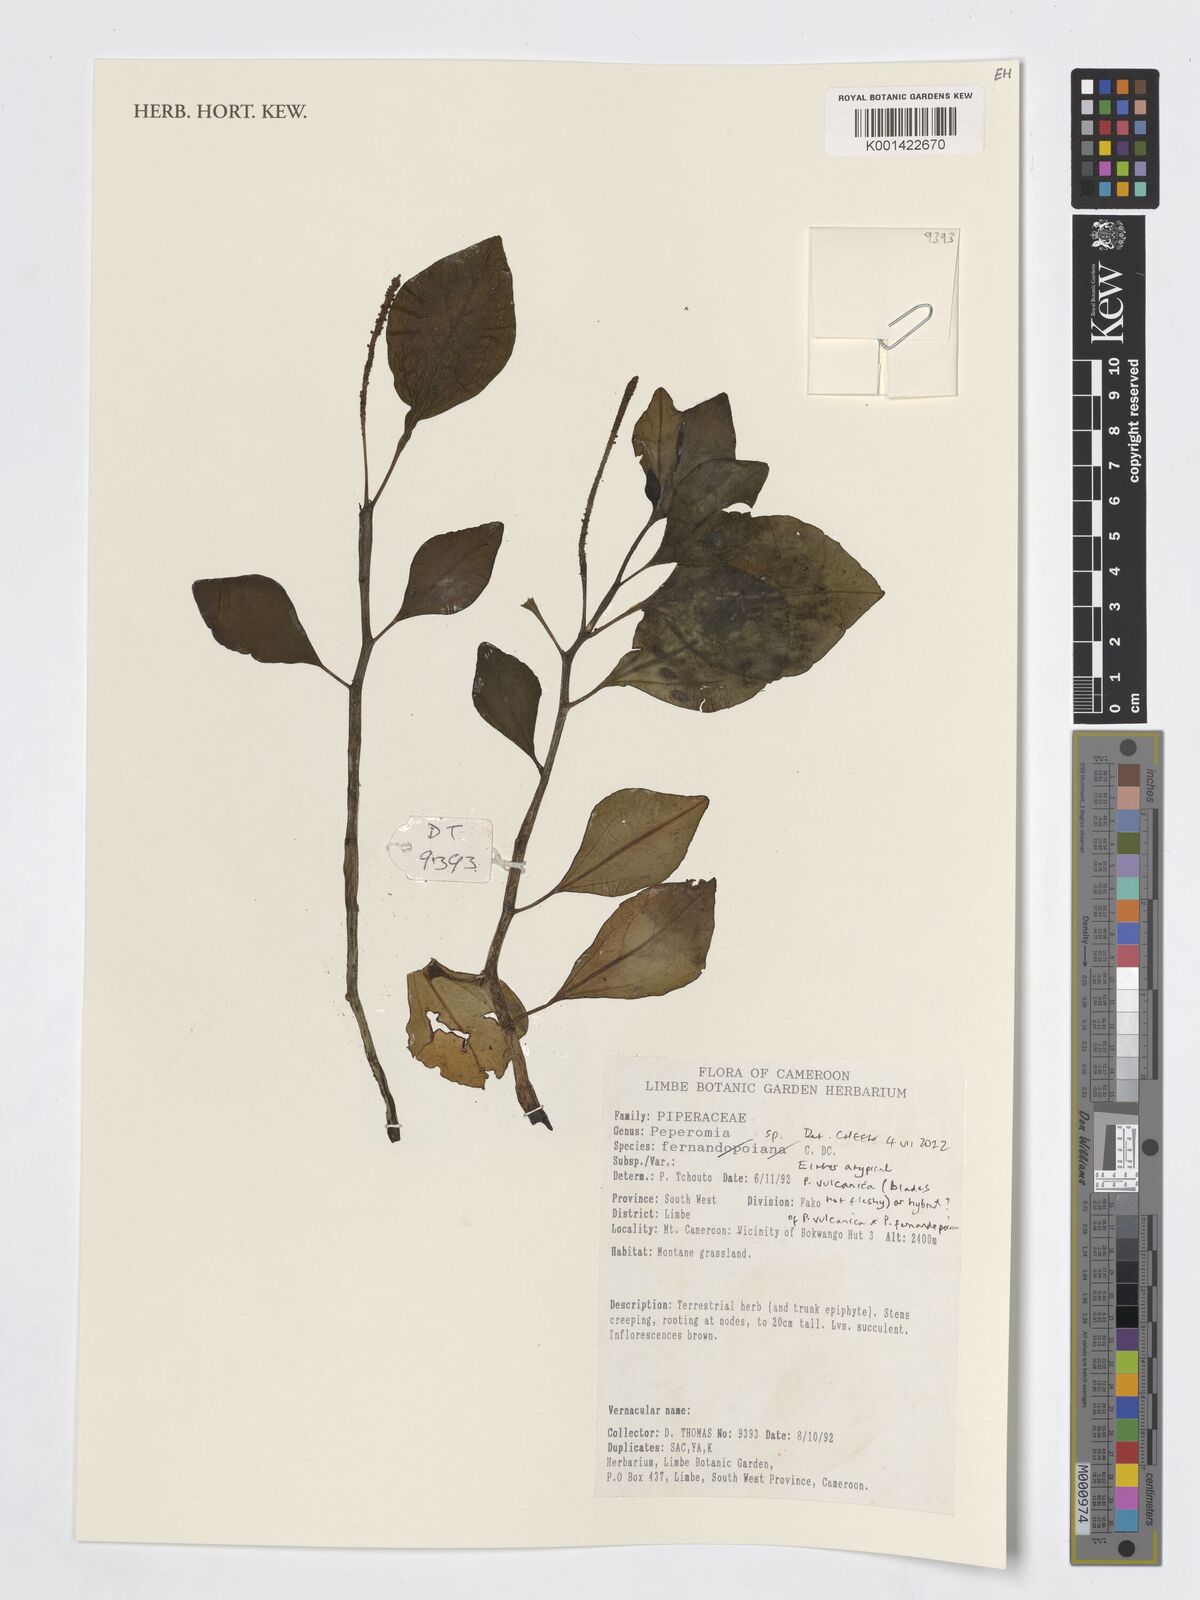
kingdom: Plantae
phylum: Tracheophyta
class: Magnoliopsida
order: Piperales
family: Piperaceae
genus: Peperomia
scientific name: Peperomia
